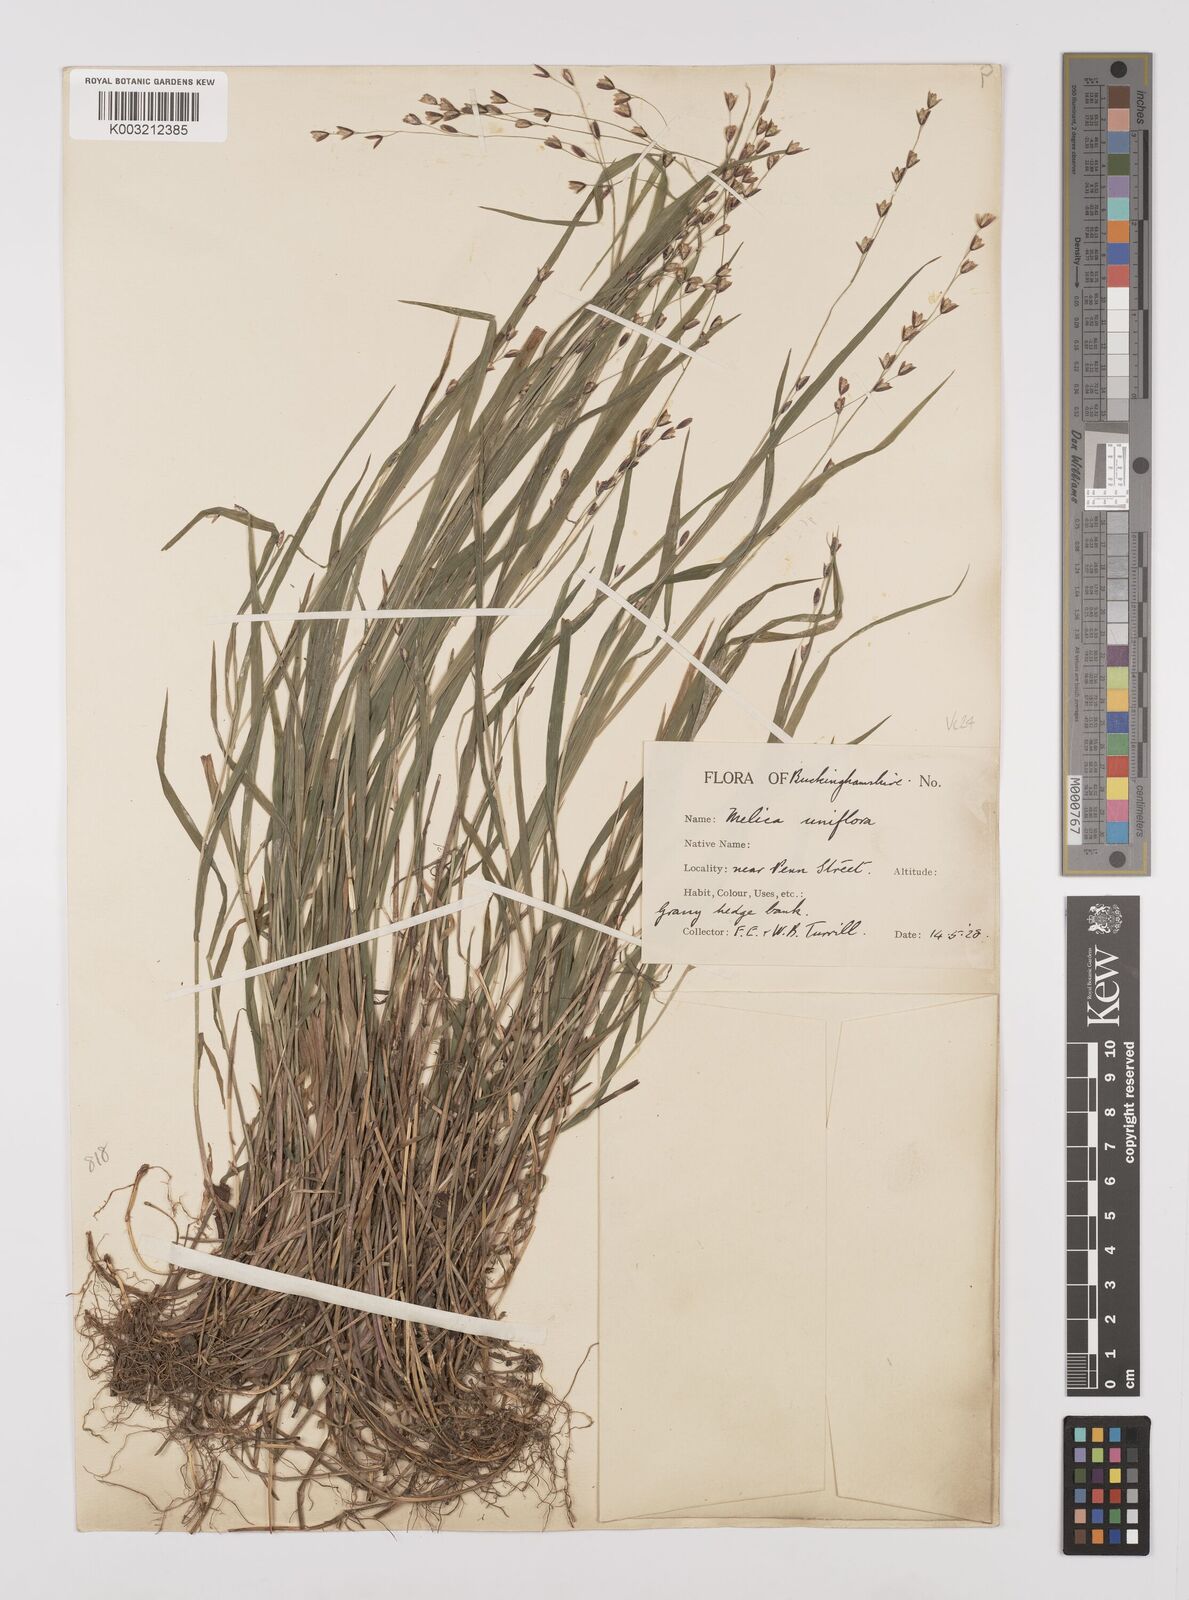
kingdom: Plantae
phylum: Tracheophyta
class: Liliopsida
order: Poales
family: Poaceae
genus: Melica
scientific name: Melica uniflora
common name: Wood melick
